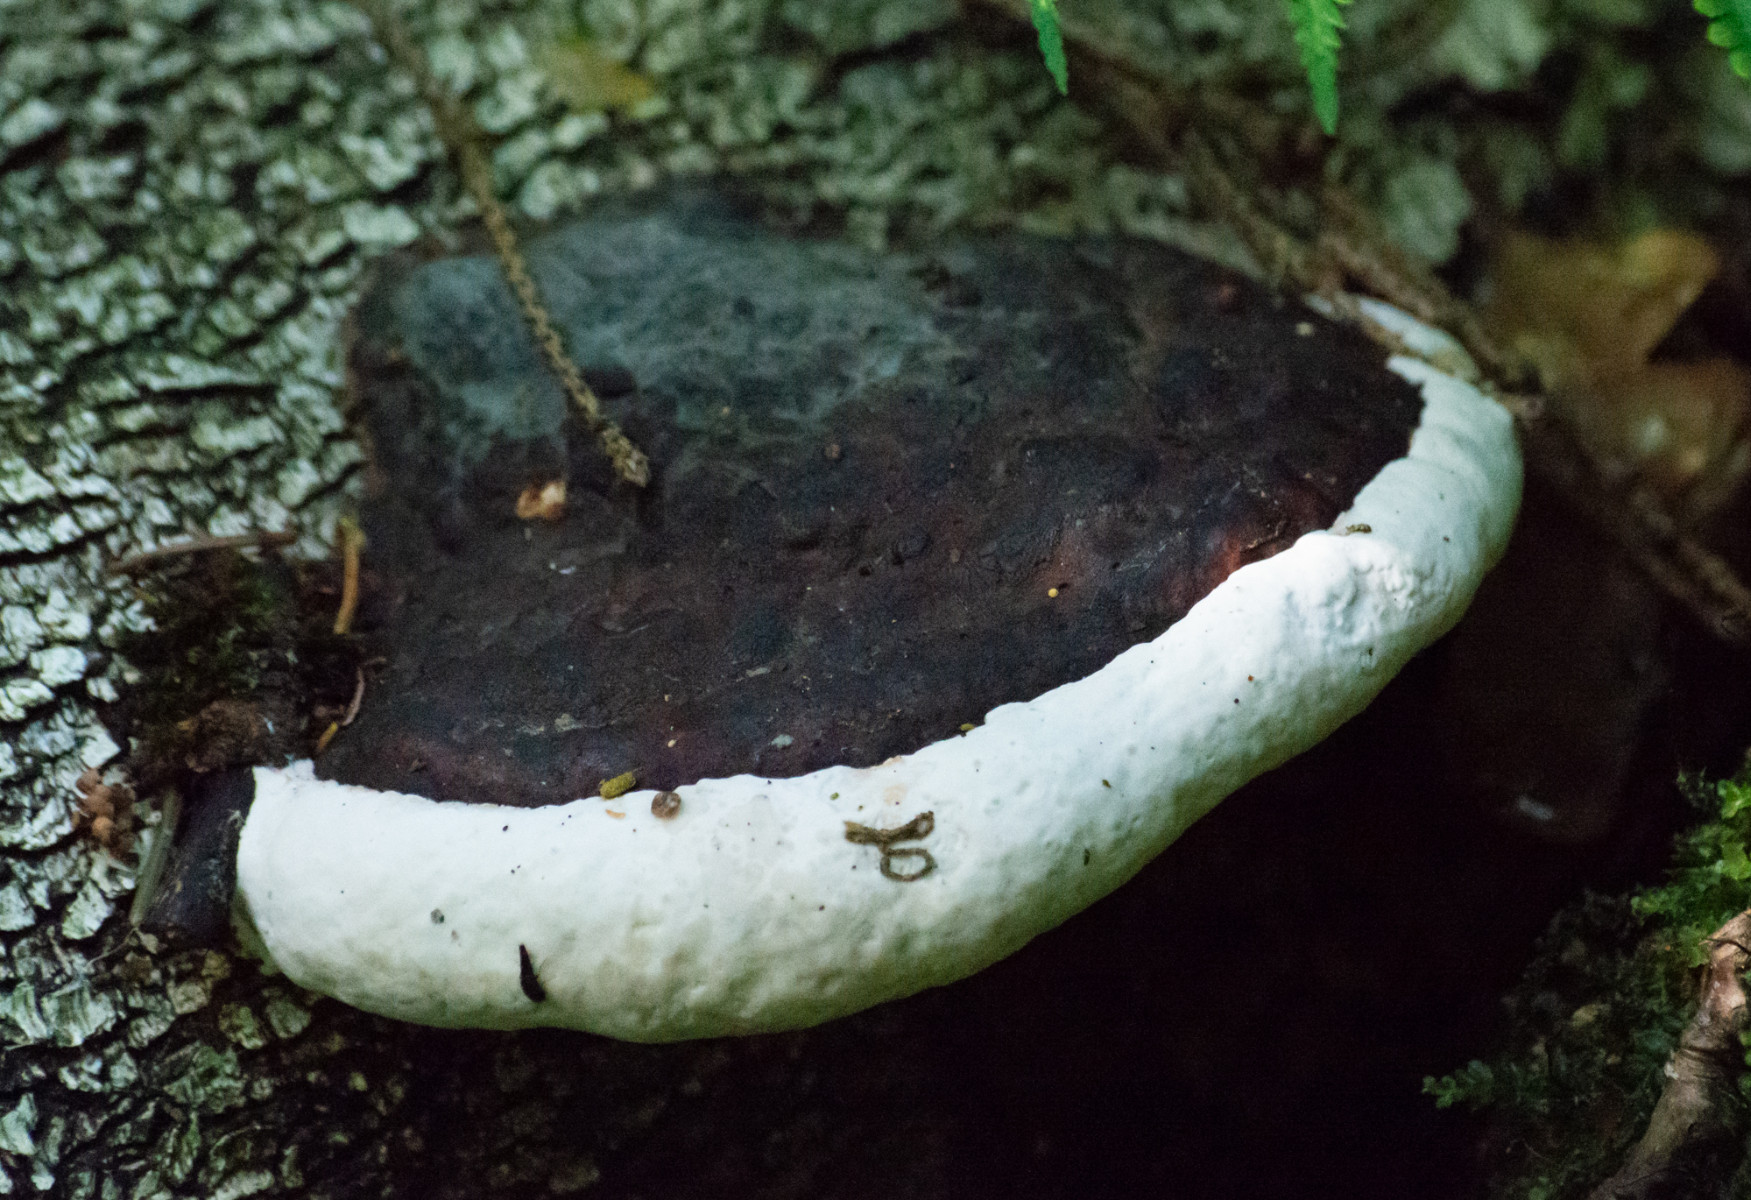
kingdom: Fungi
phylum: Basidiomycota
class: Agaricomycetes
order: Polyporales
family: Fomitopsidaceae
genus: Fomitopsis
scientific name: Fomitopsis pinicola
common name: randbæltet hovporesvamp
